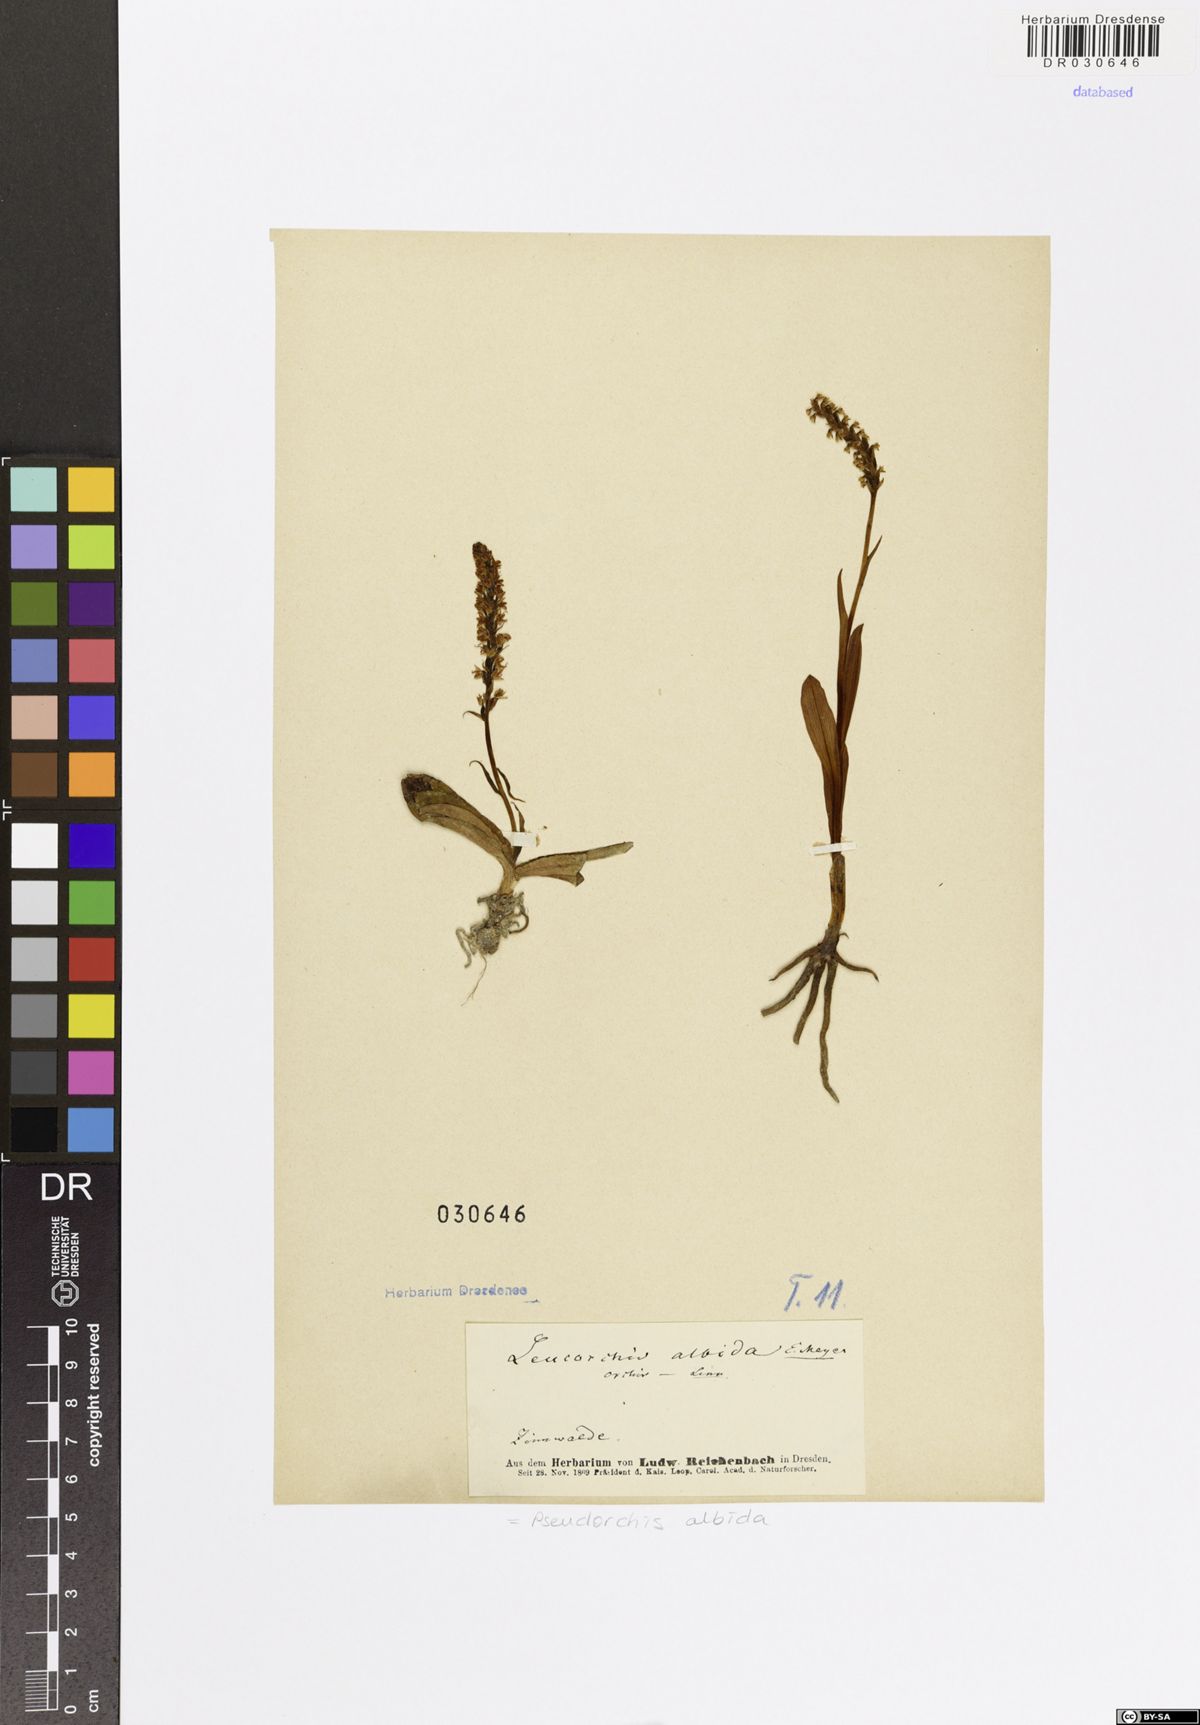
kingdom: Plantae
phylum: Tracheophyta
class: Liliopsida
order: Asparagales
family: Orchidaceae
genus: Pseudorchis
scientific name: Pseudorchis albida
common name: Small-white orchid
